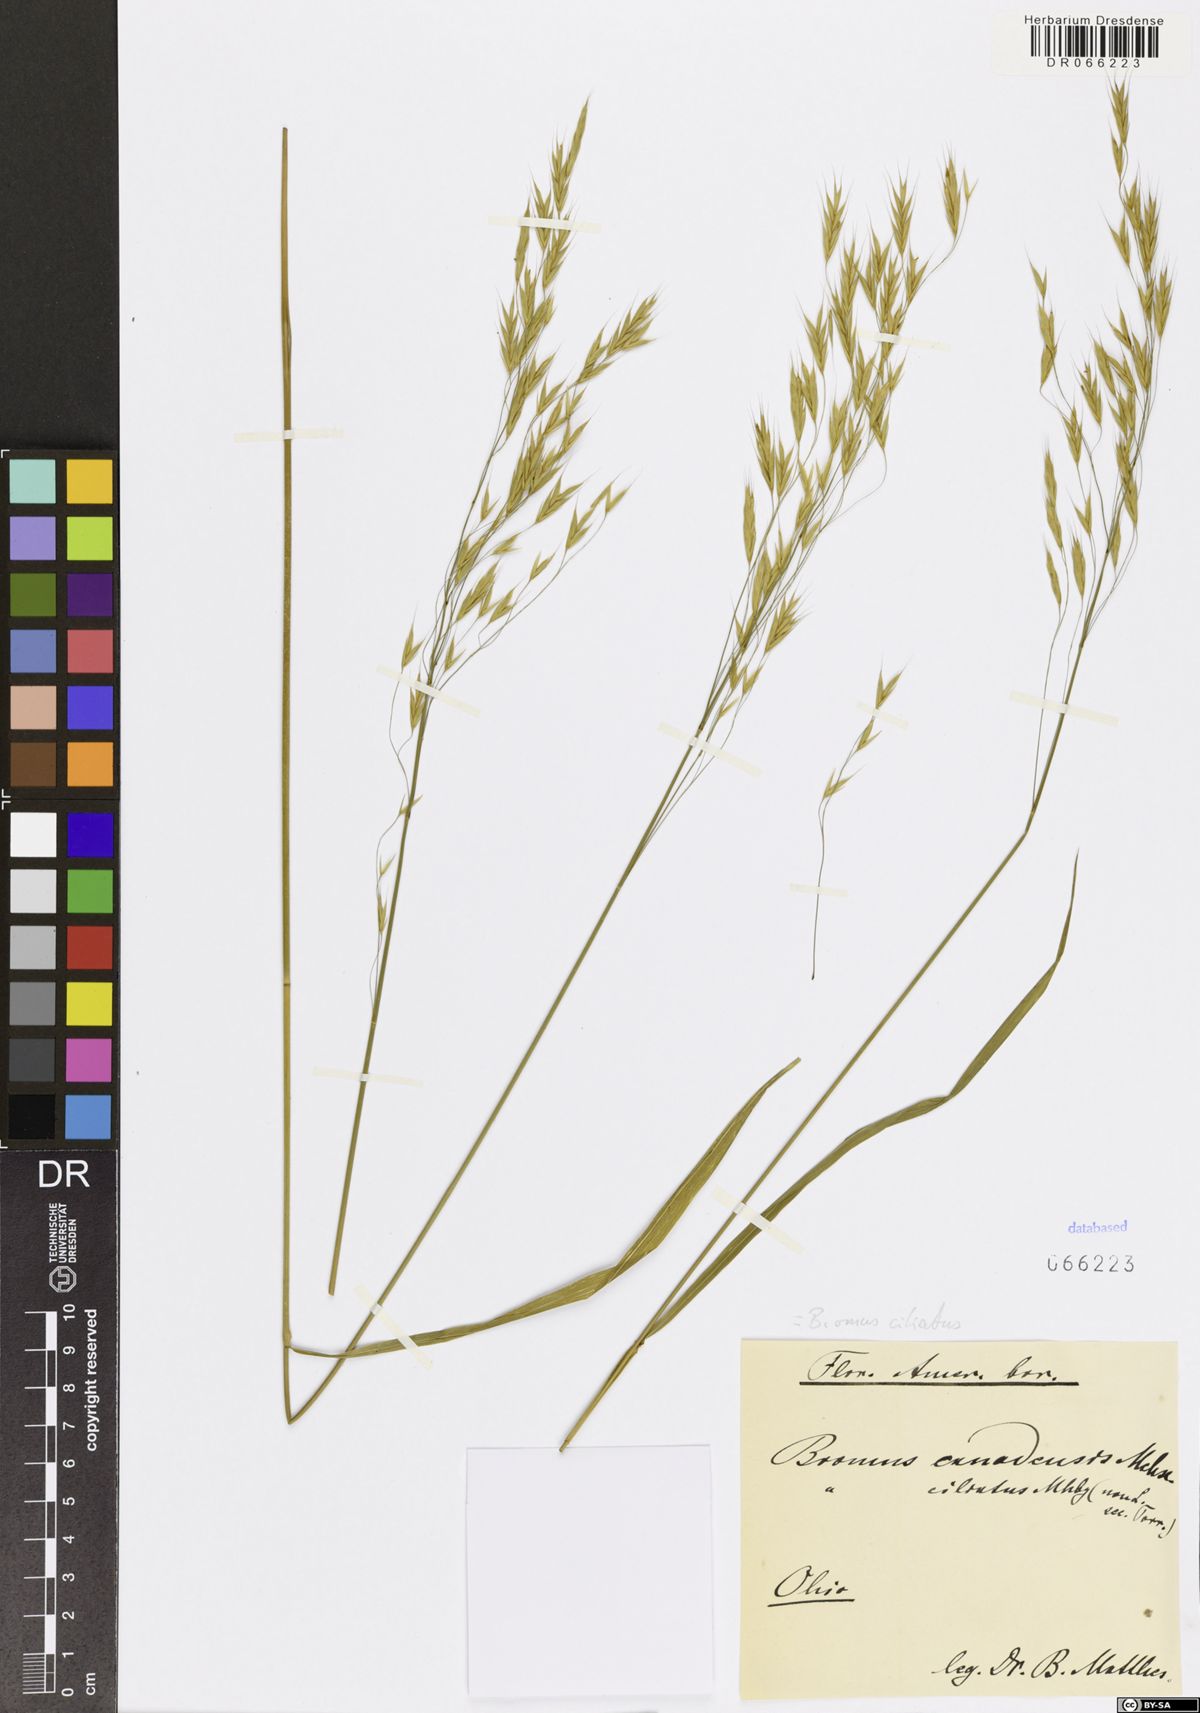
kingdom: Plantae
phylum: Tracheophyta
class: Liliopsida
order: Poales
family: Poaceae
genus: Bromus
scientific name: Bromus ciliatus
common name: Fringe brome
